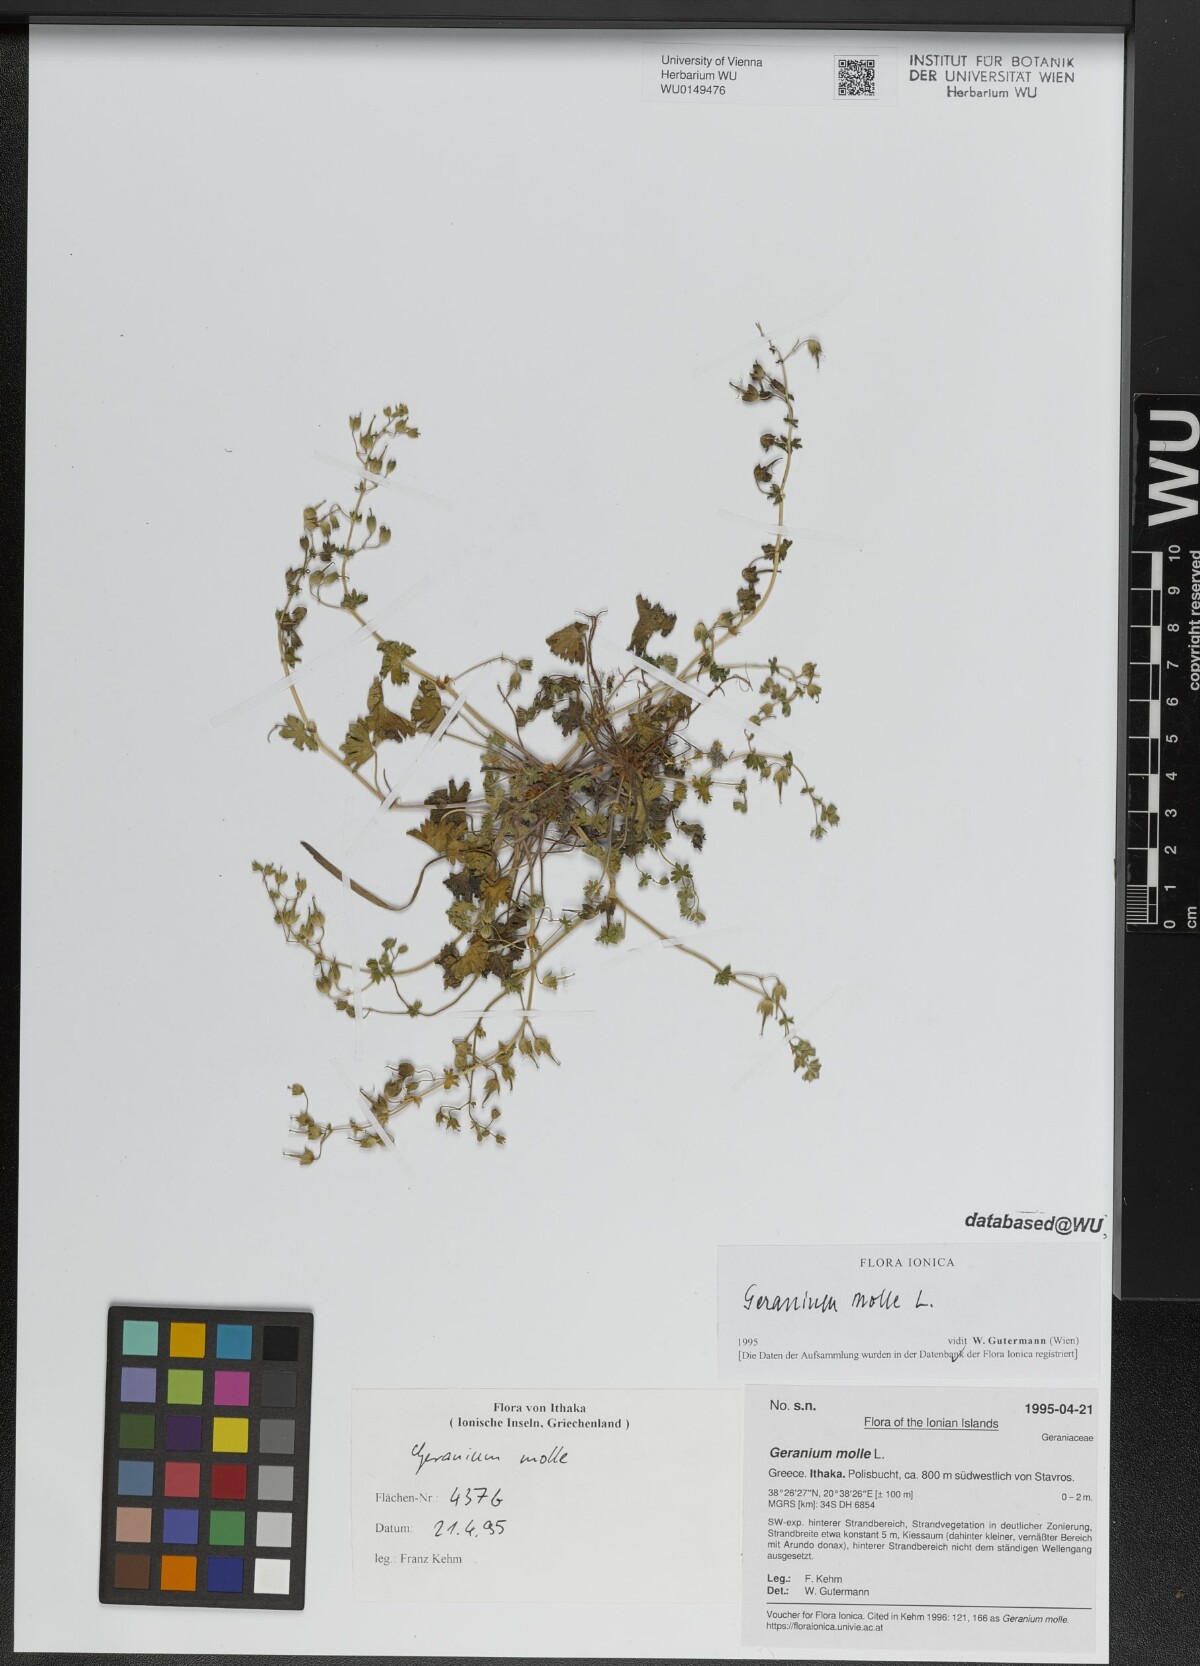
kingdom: Plantae
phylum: Tracheophyta
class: Magnoliopsida
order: Geraniales
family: Geraniaceae
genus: Geranium
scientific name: Geranium molle
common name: Dove's-foot crane's-bill
